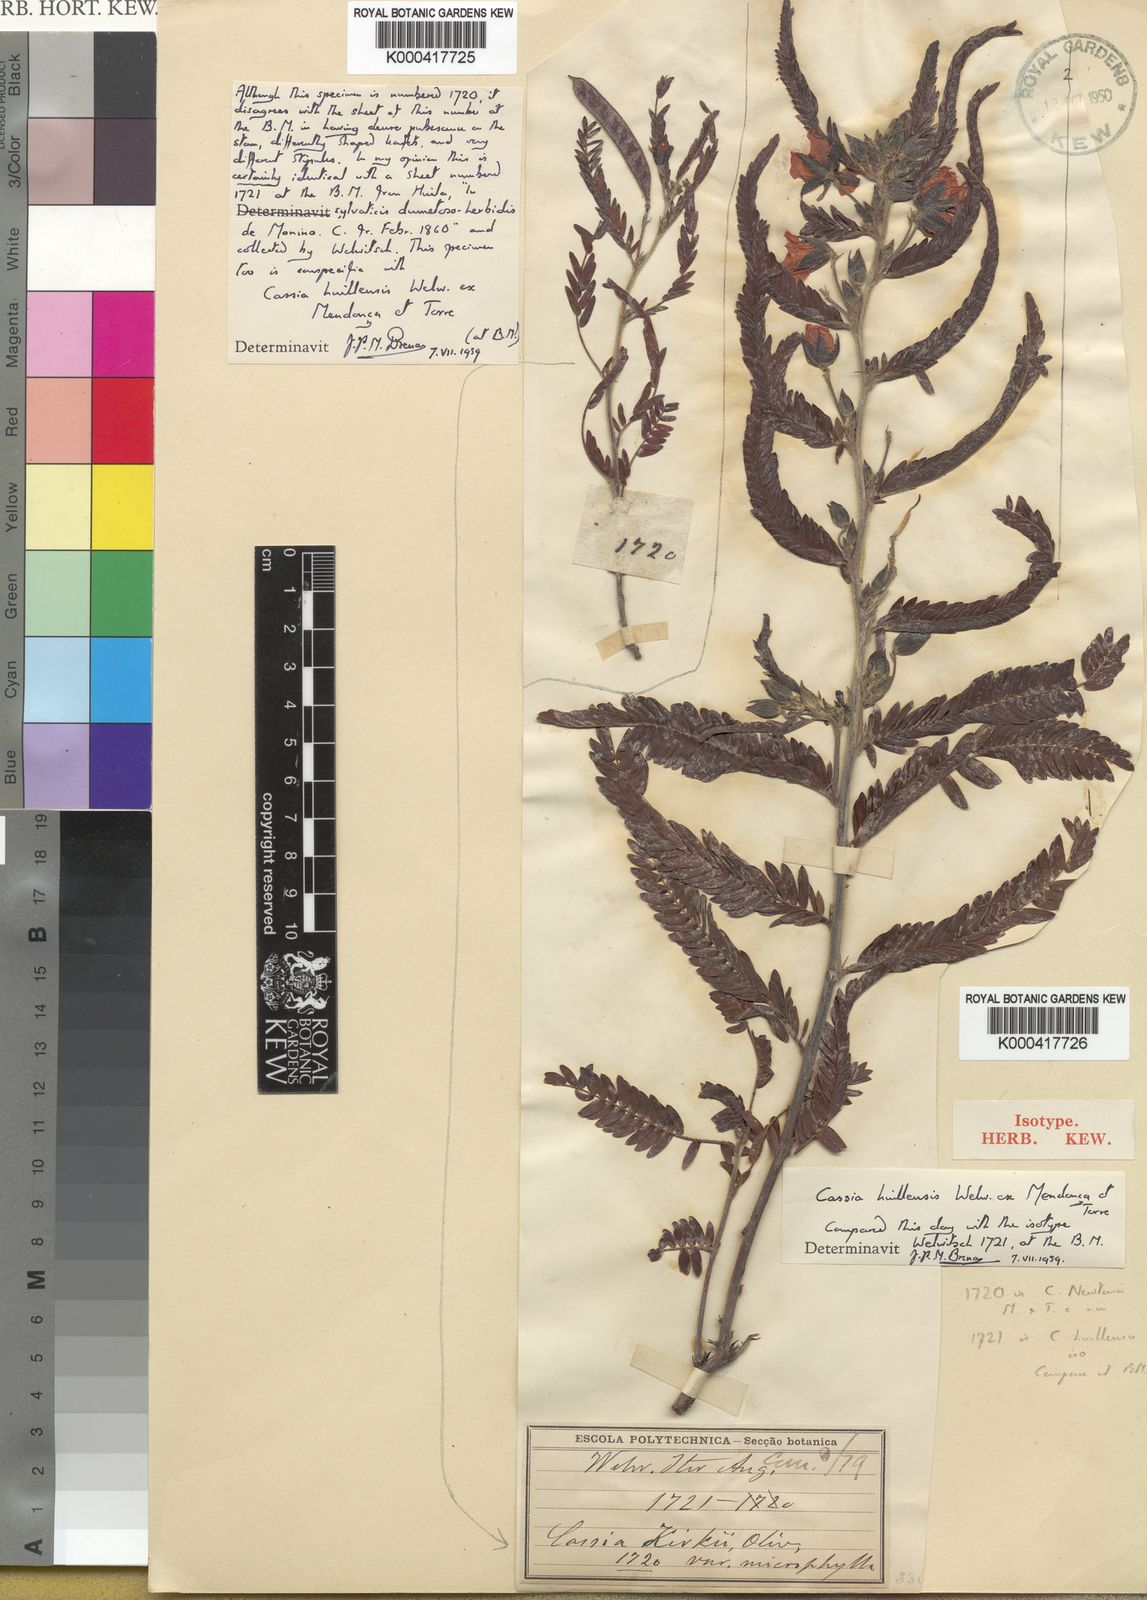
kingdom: Plantae
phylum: Tracheophyta
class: Magnoliopsida
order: Fabales
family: Fabaceae
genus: Cassia
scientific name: Cassia
